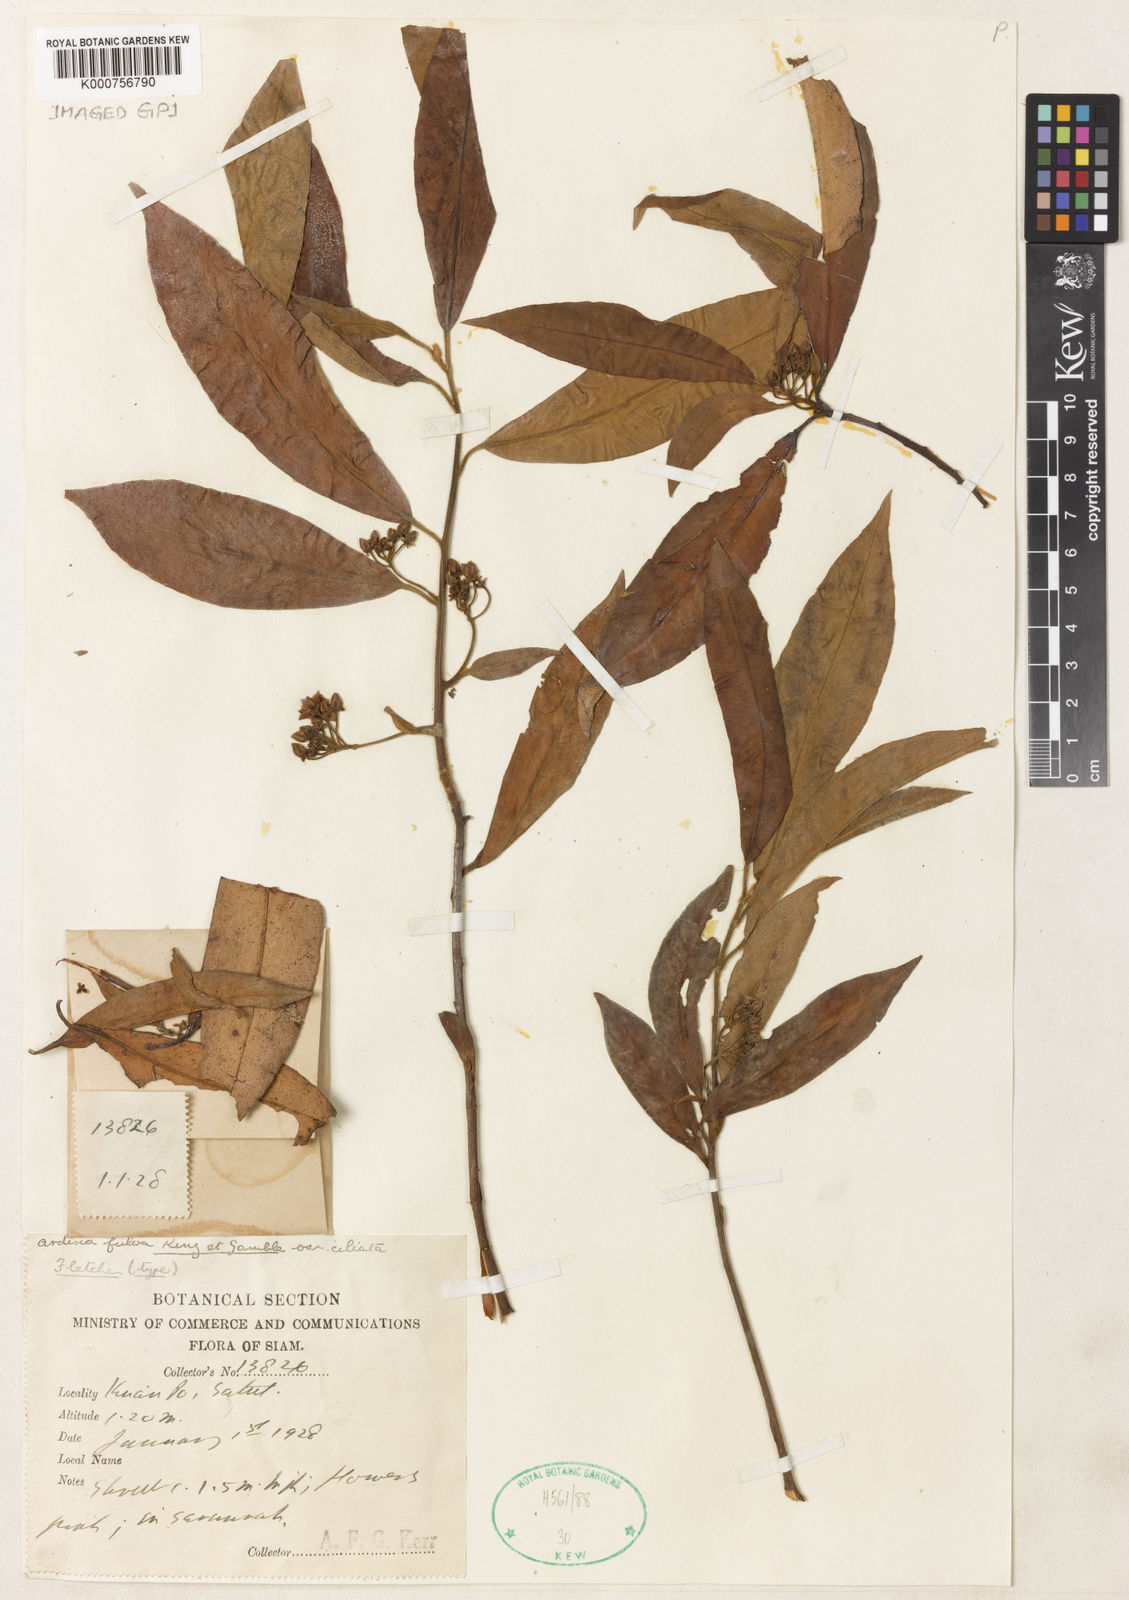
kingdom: Plantae
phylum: Tracheophyta
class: Magnoliopsida
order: Ericales
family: Primulaceae
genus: Ardisia
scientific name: Ardisia fulva
